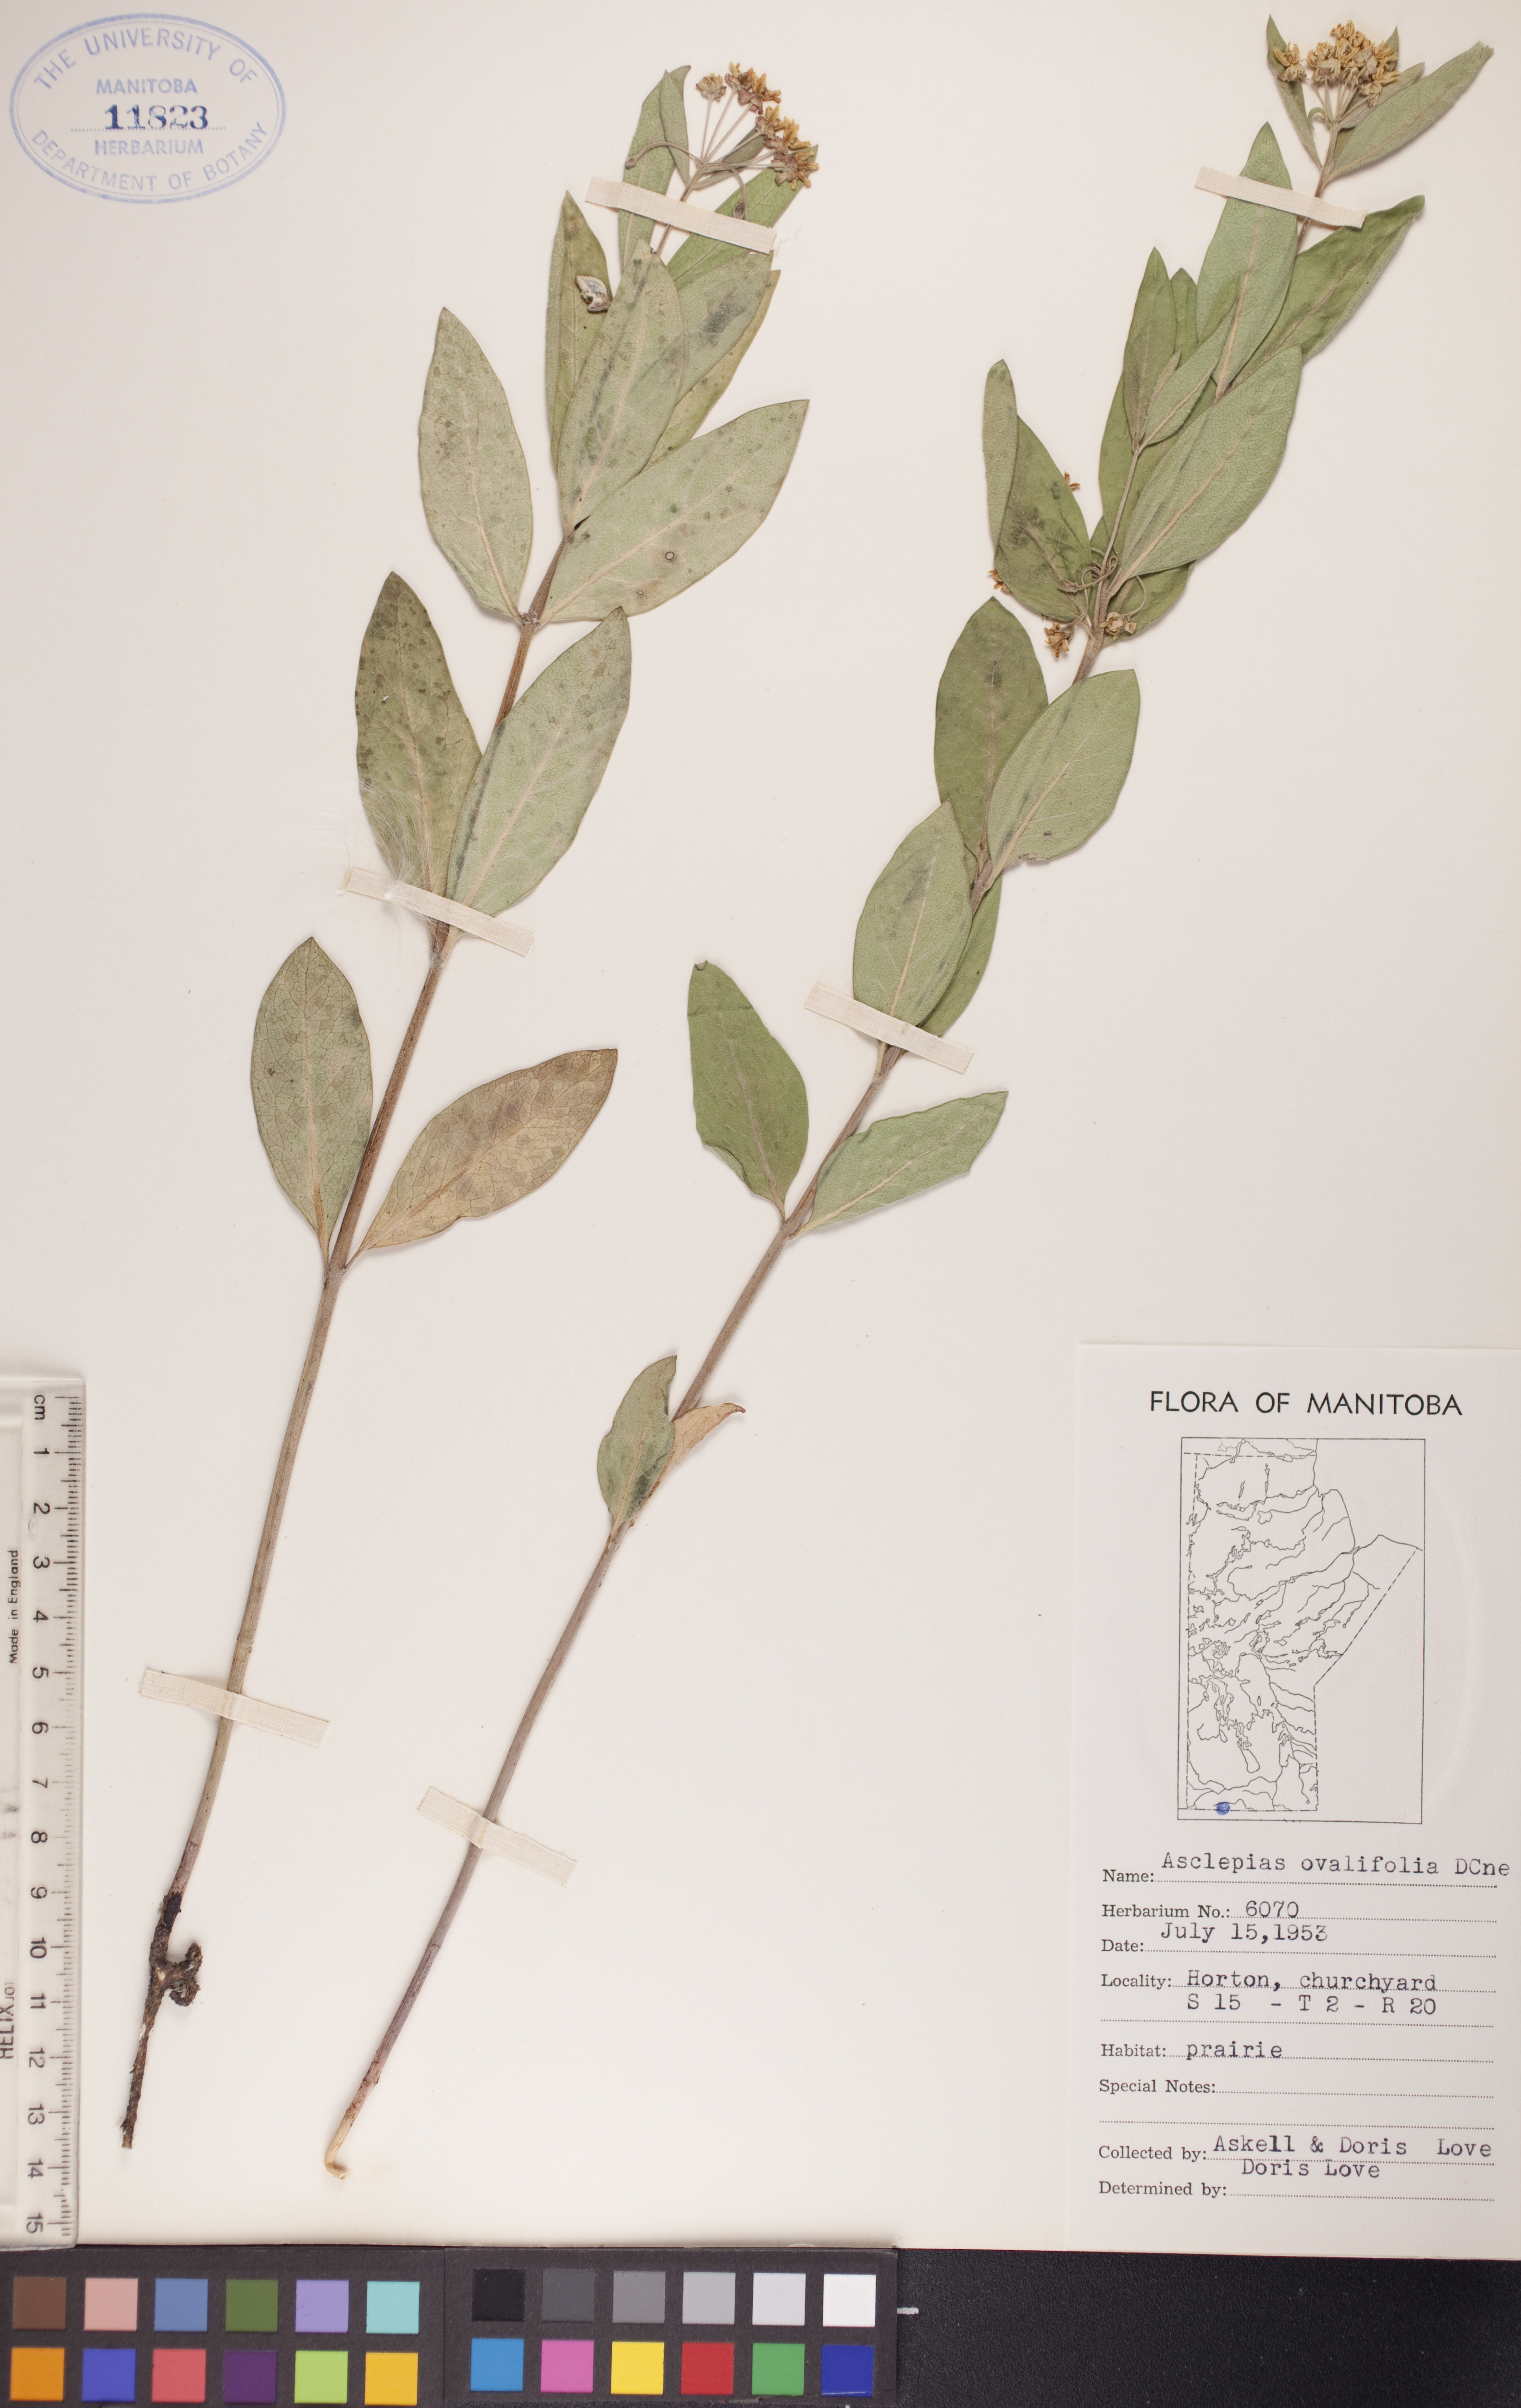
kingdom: Plantae
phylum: Tracheophyta
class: Magnoliopsida
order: Gentianales
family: Apocynaceae
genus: Asclepias
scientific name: Asclepias ovalifolia
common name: Dwarf milkweed
